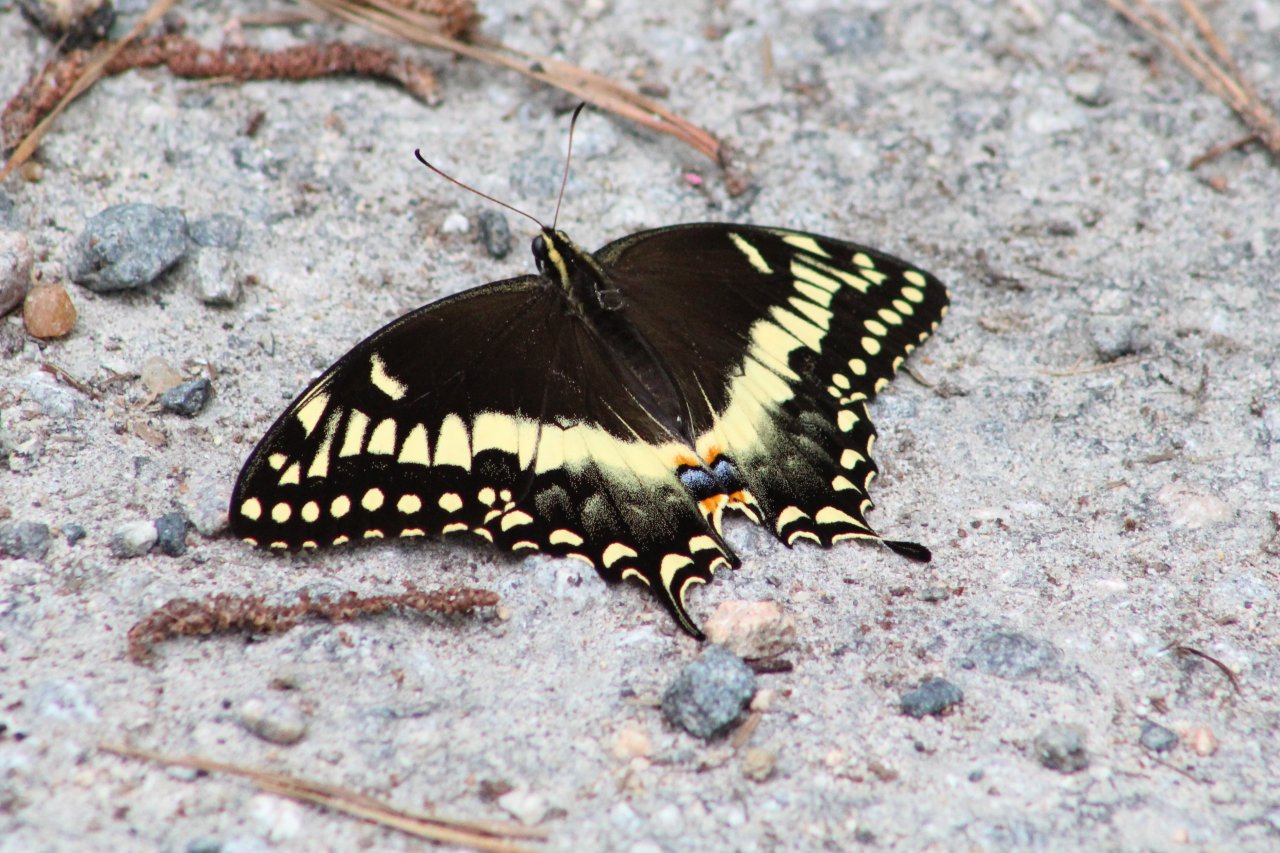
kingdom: Animalia
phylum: Arthropoda
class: Insecta
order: Lepidoptera
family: Papilionidae
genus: Pterourus
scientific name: Pterourus palamedes
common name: Palamedes Swallowtail
